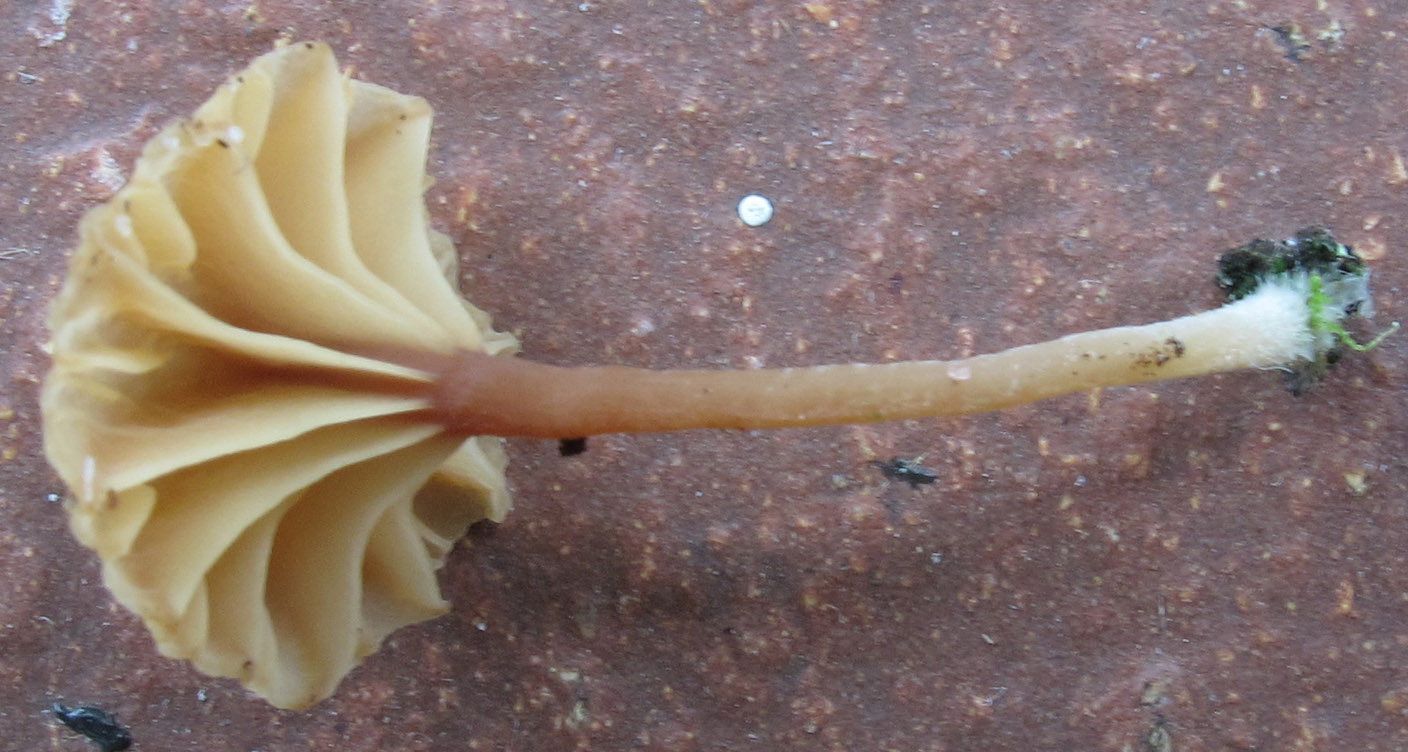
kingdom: Fungi
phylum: Basidiomycota
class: Agaricomycetes
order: Agaricales
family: Hygrophoraceae
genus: Lichenomphalia
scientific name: Lichenomphalia umbellifera
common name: tørve-lavhat
